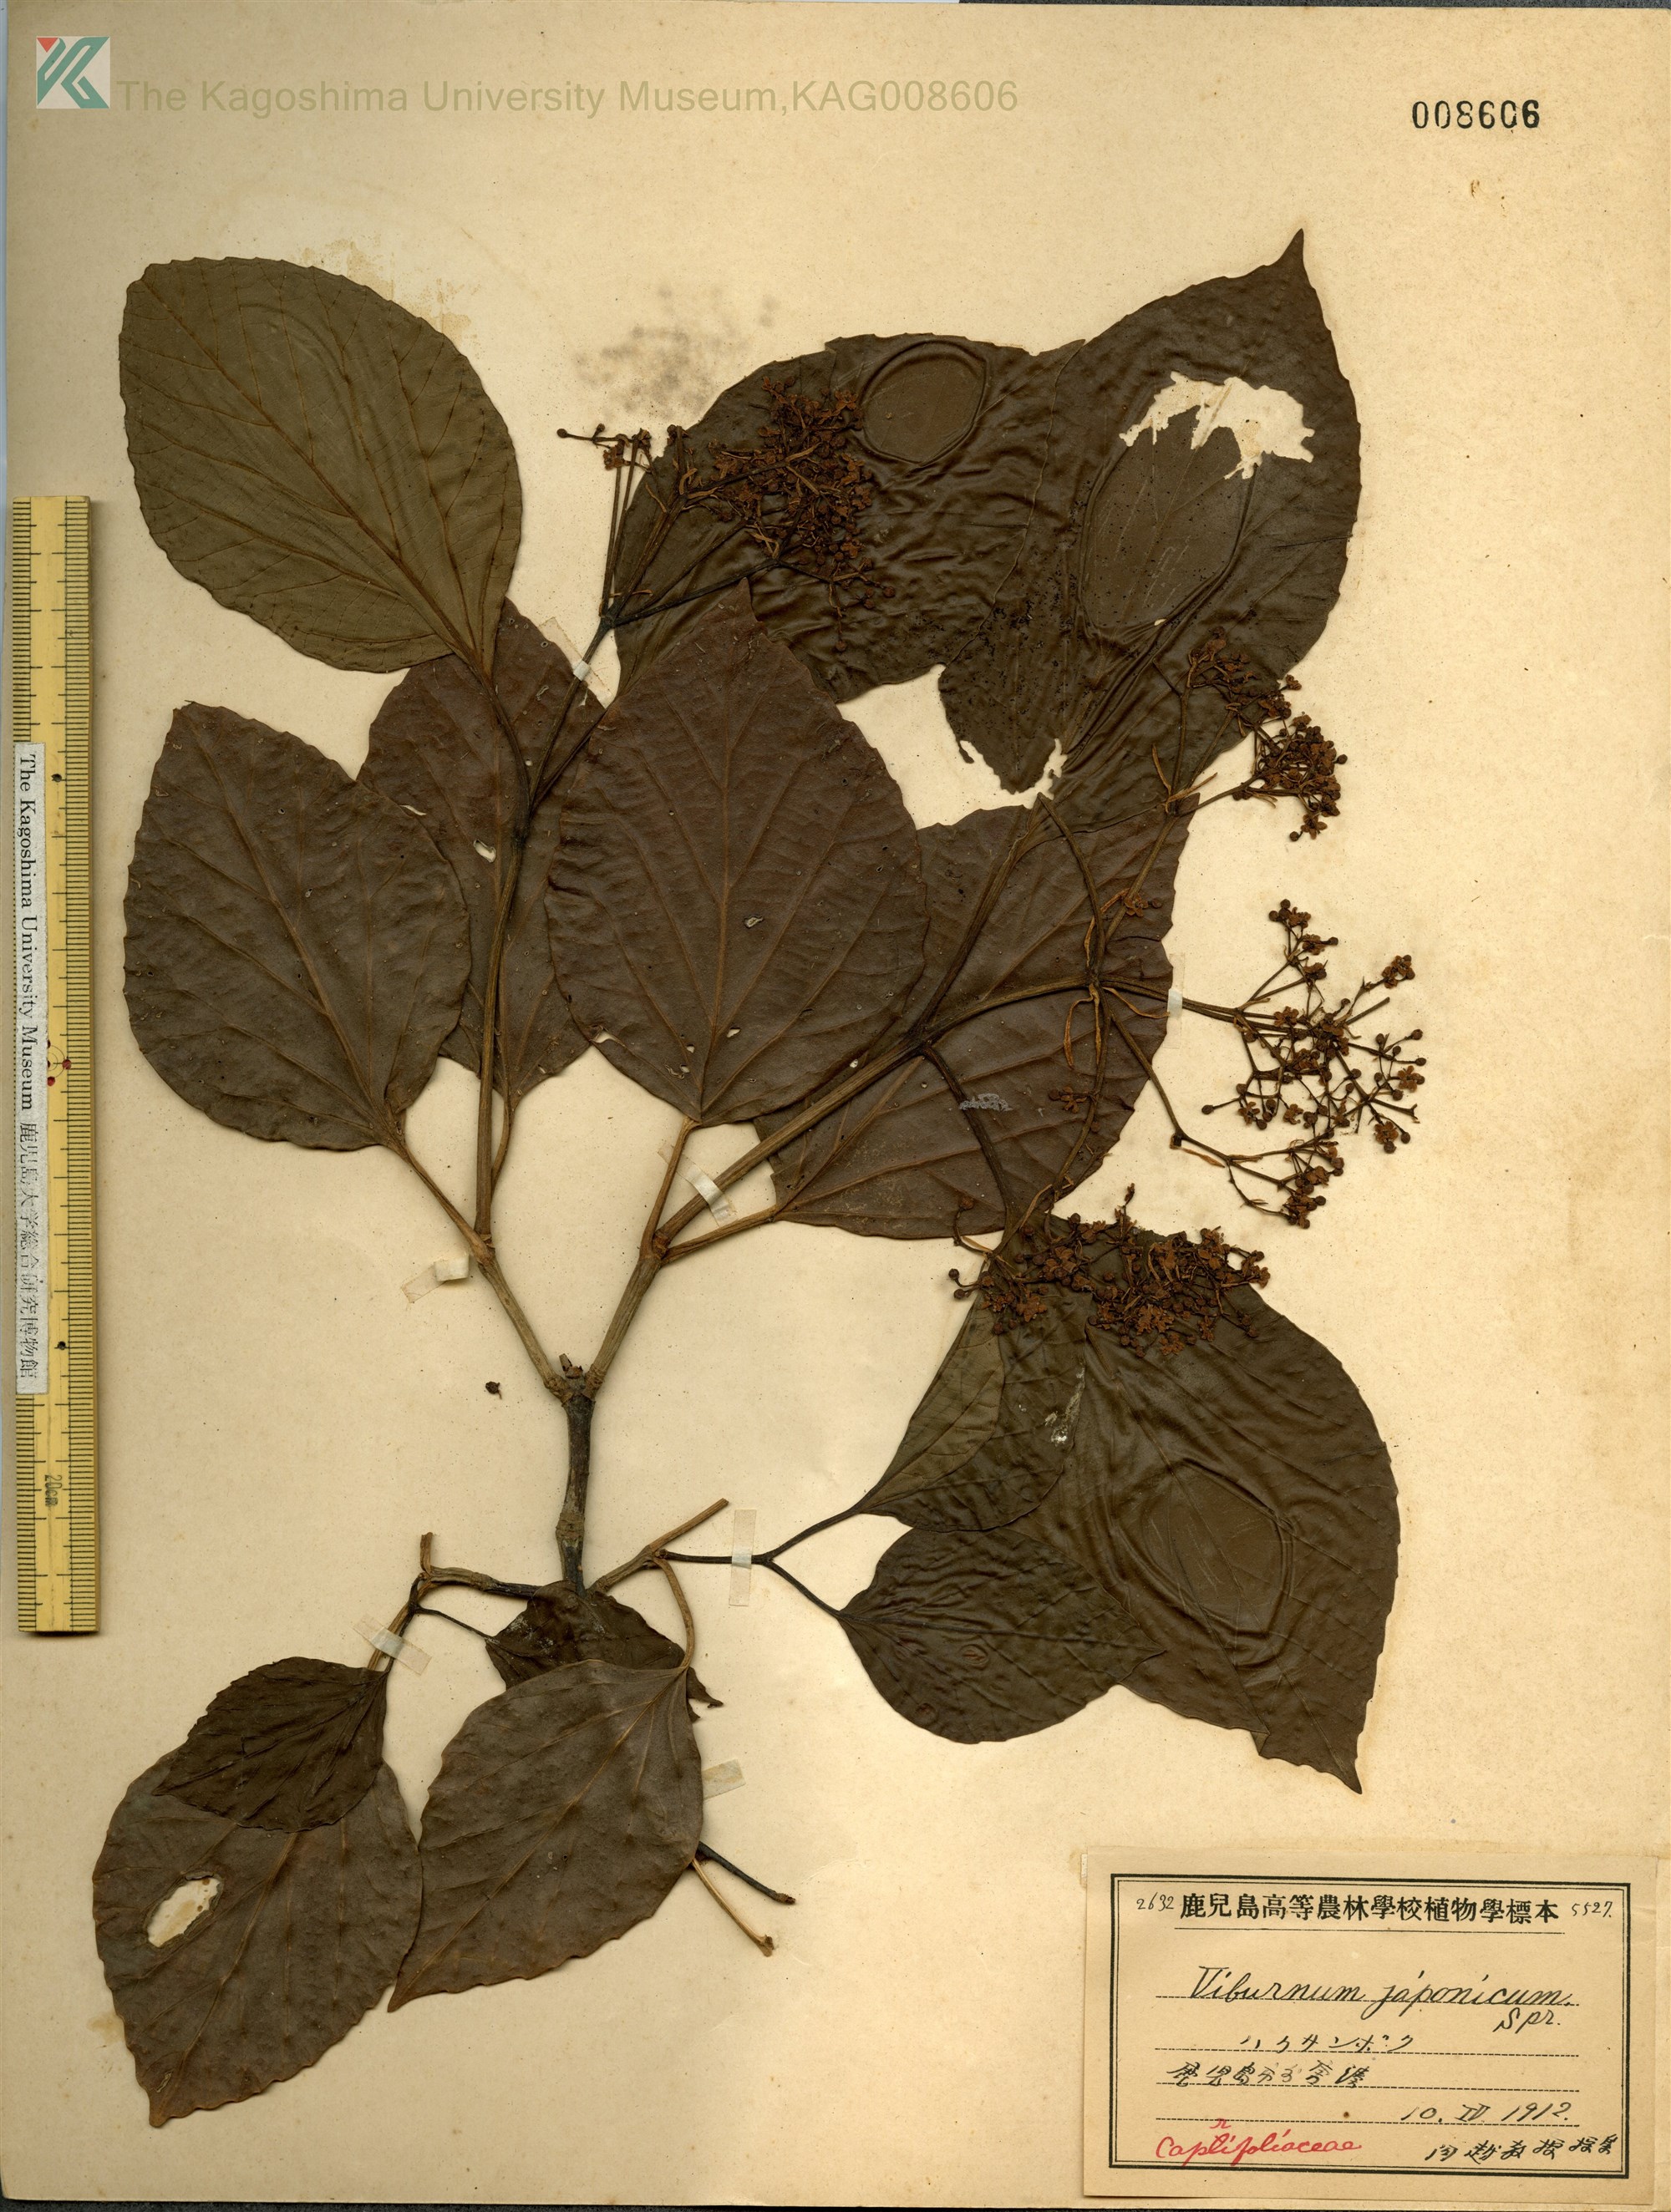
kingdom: Plantae
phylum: Tracheophyta
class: Magnoliopsida
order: Dipsacales
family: Viburnaceae
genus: Viburnum
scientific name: Viburnum japonicum
